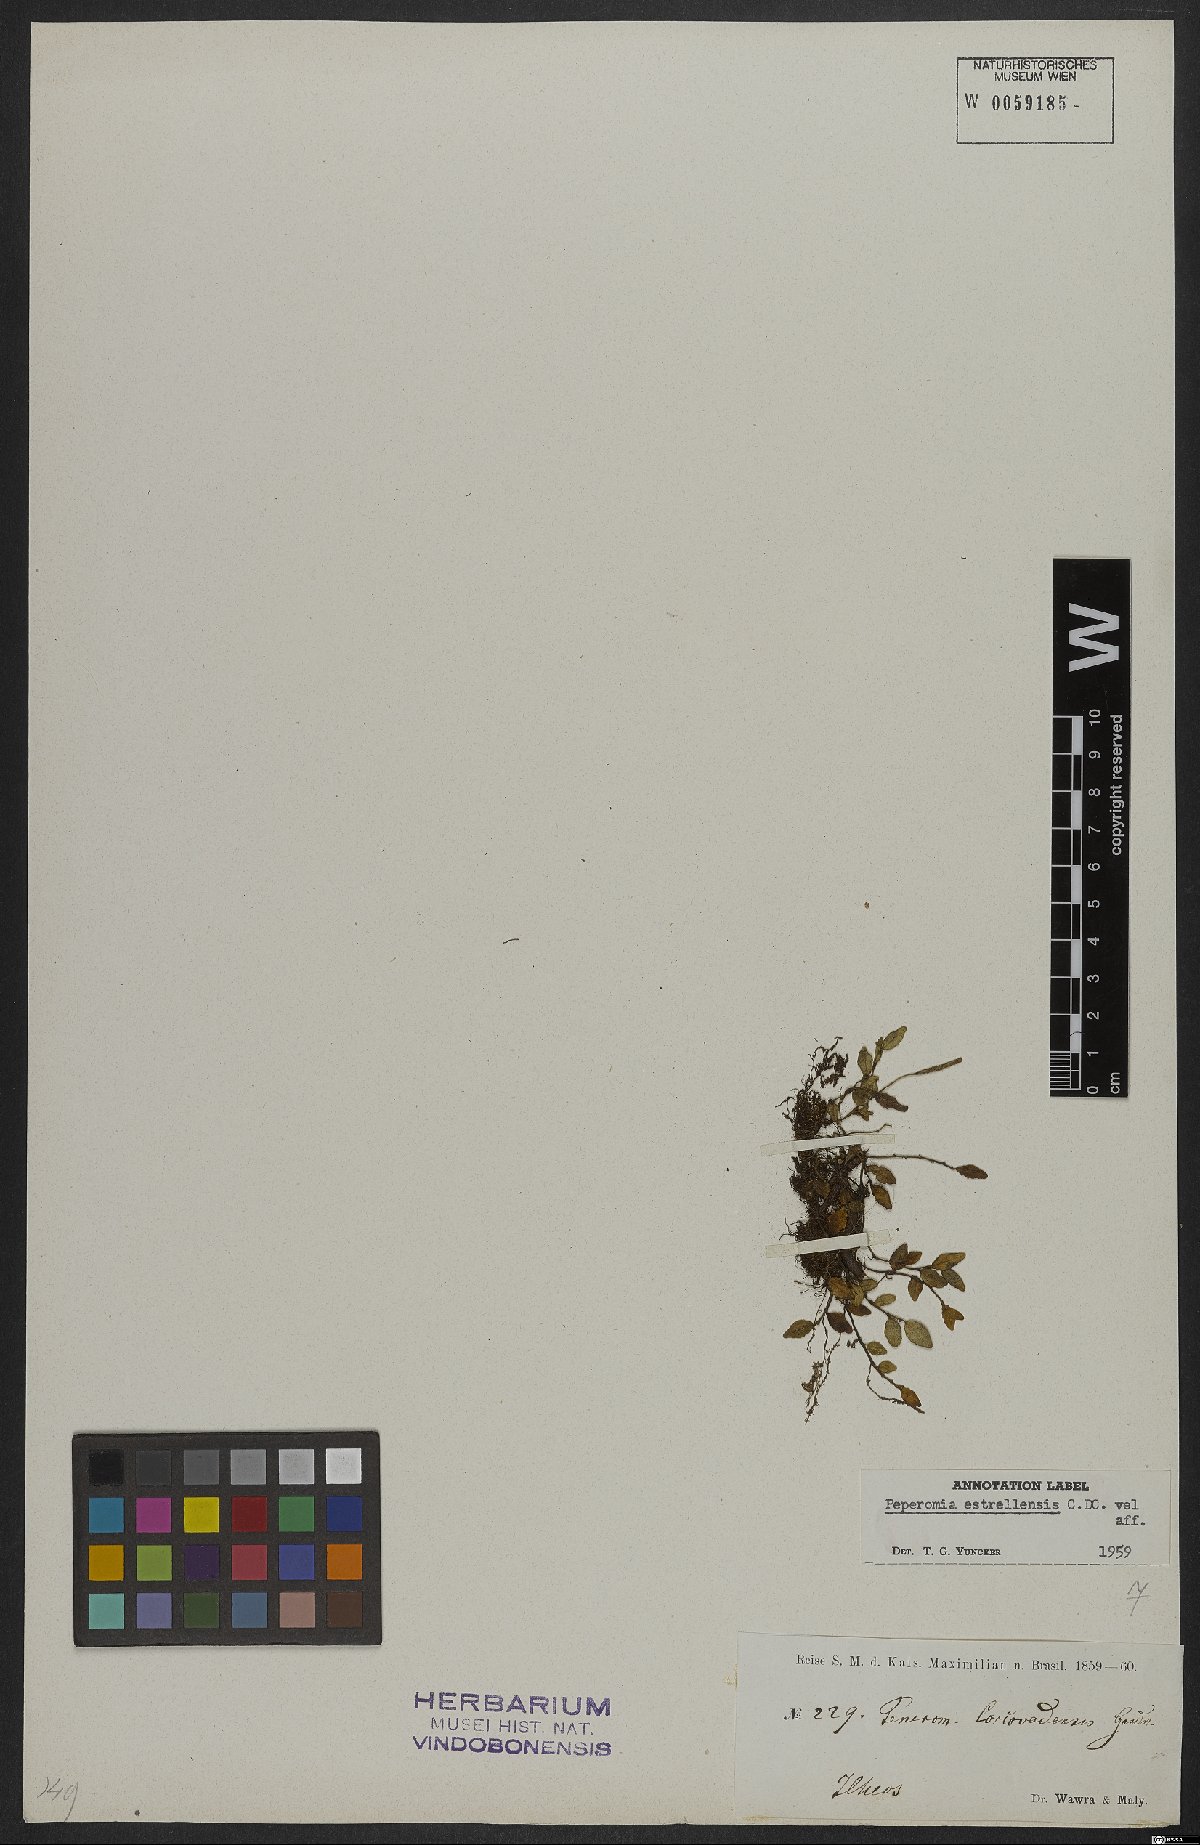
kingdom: Plantae
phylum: Tracheophyta
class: Magnoliopsida
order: Piperales
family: Piperaceae
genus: Peperomia
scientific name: Peperomia corcovadensis
